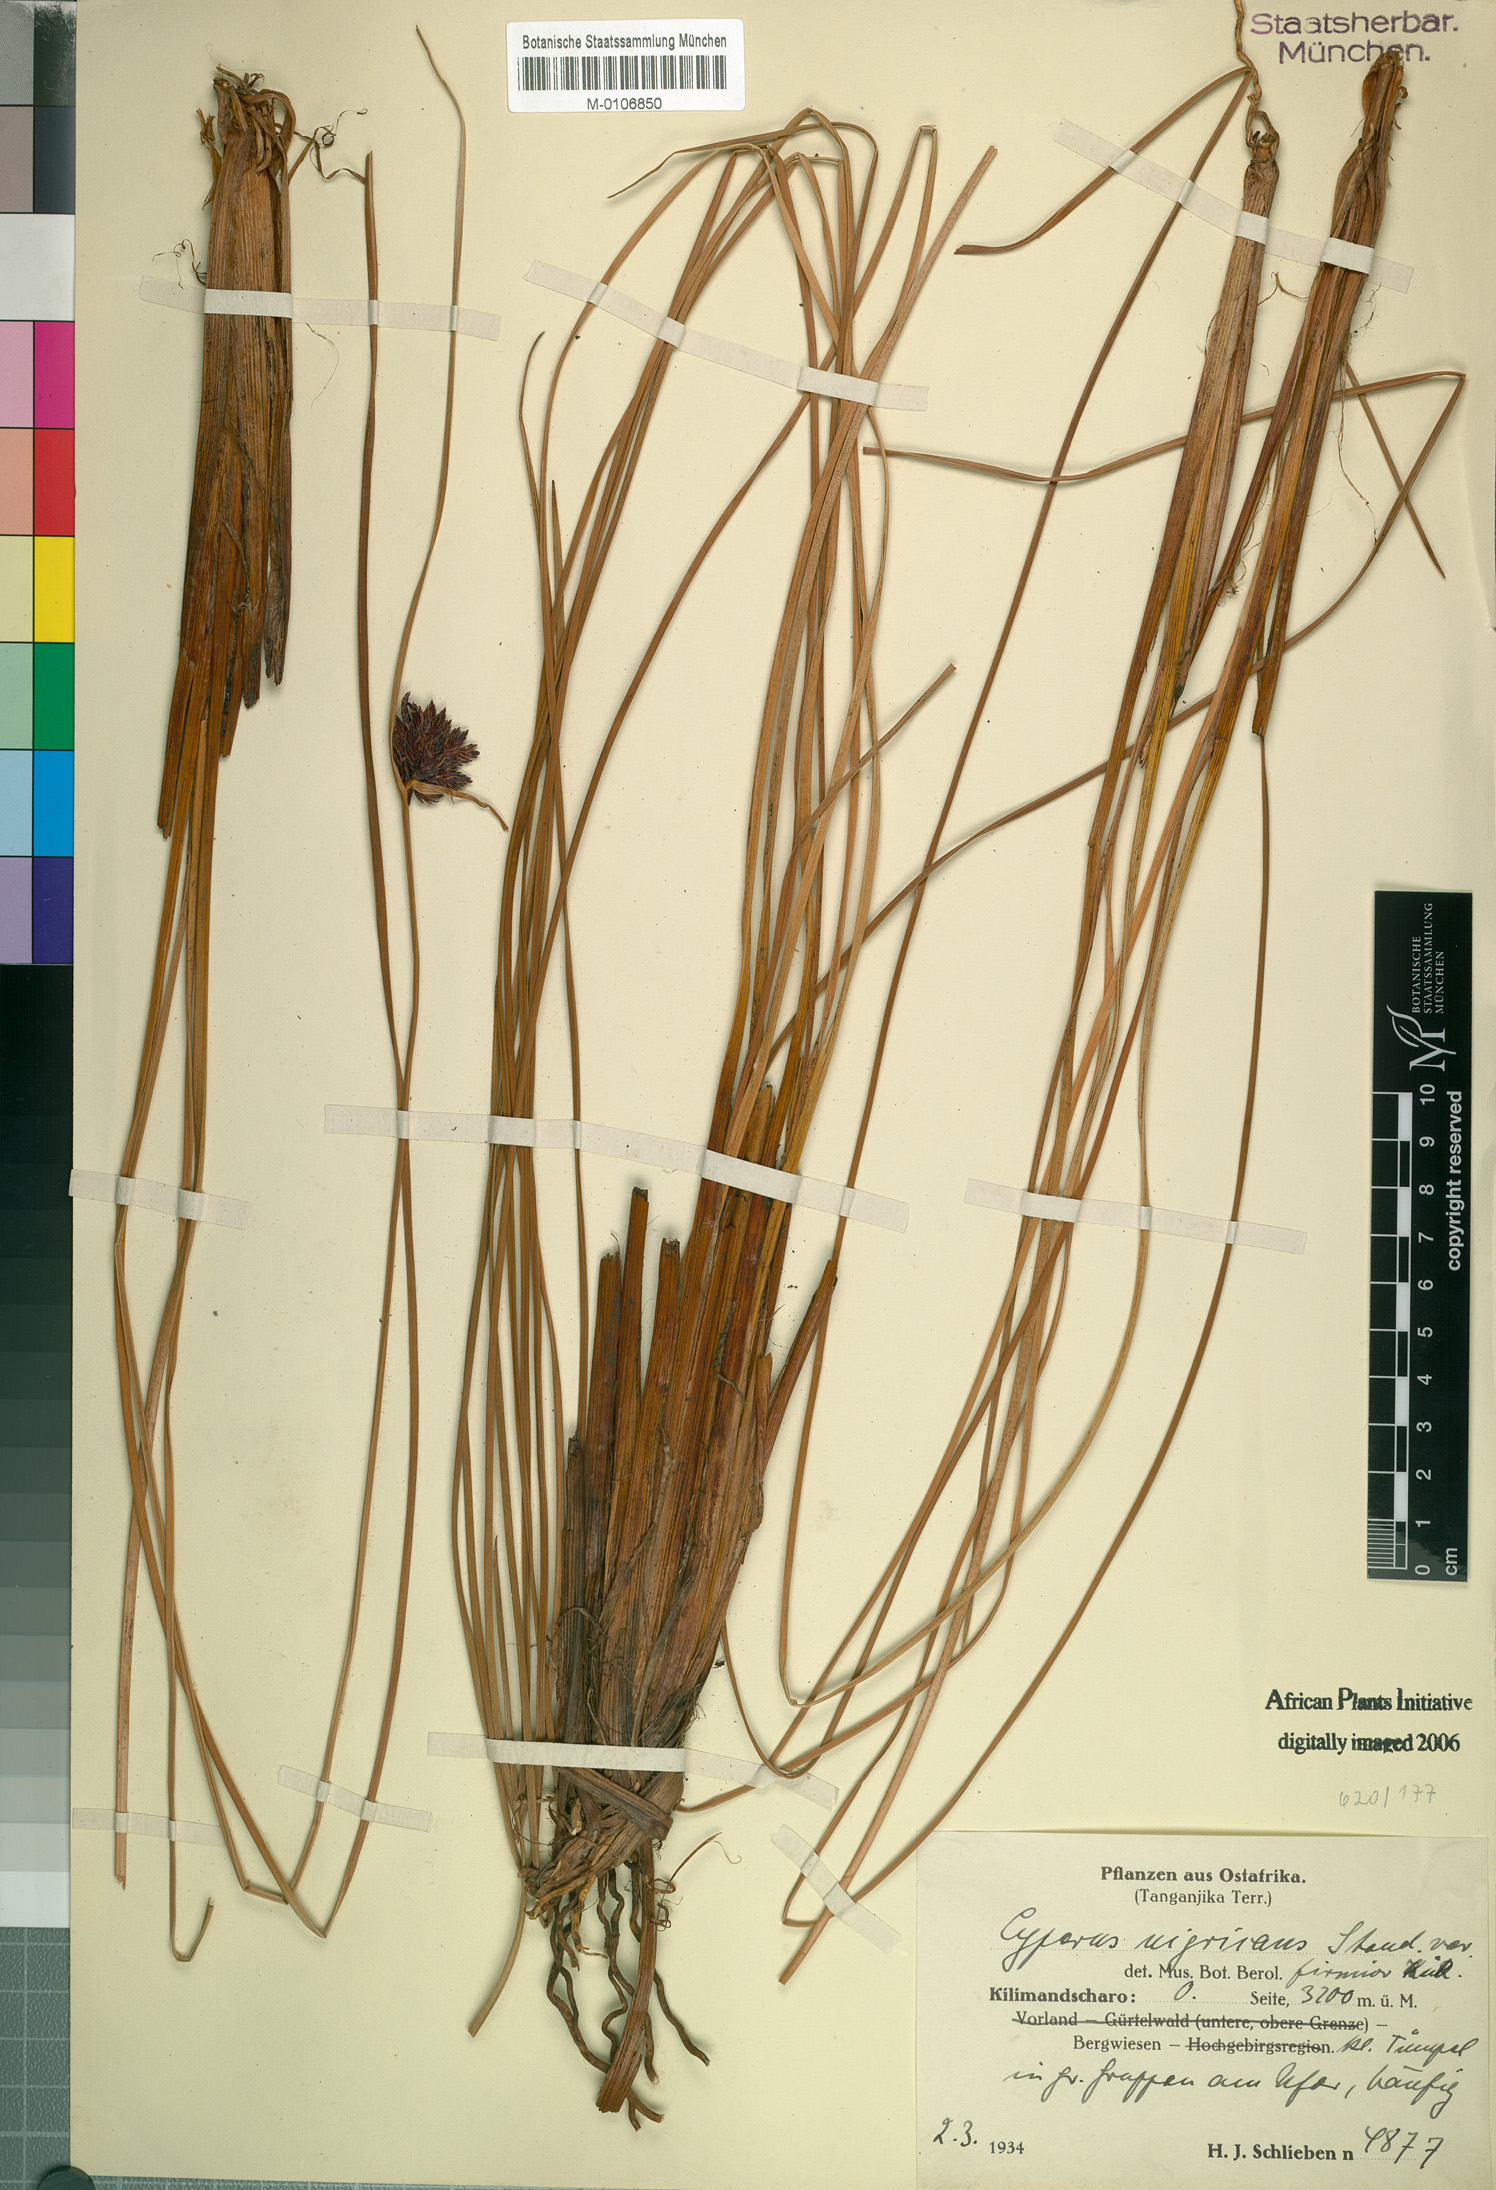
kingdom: Plantae
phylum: Tracheophyta
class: Liliopsida
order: Poales
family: Cyperaceae
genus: Cyperus
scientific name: Cyperus nigricans
